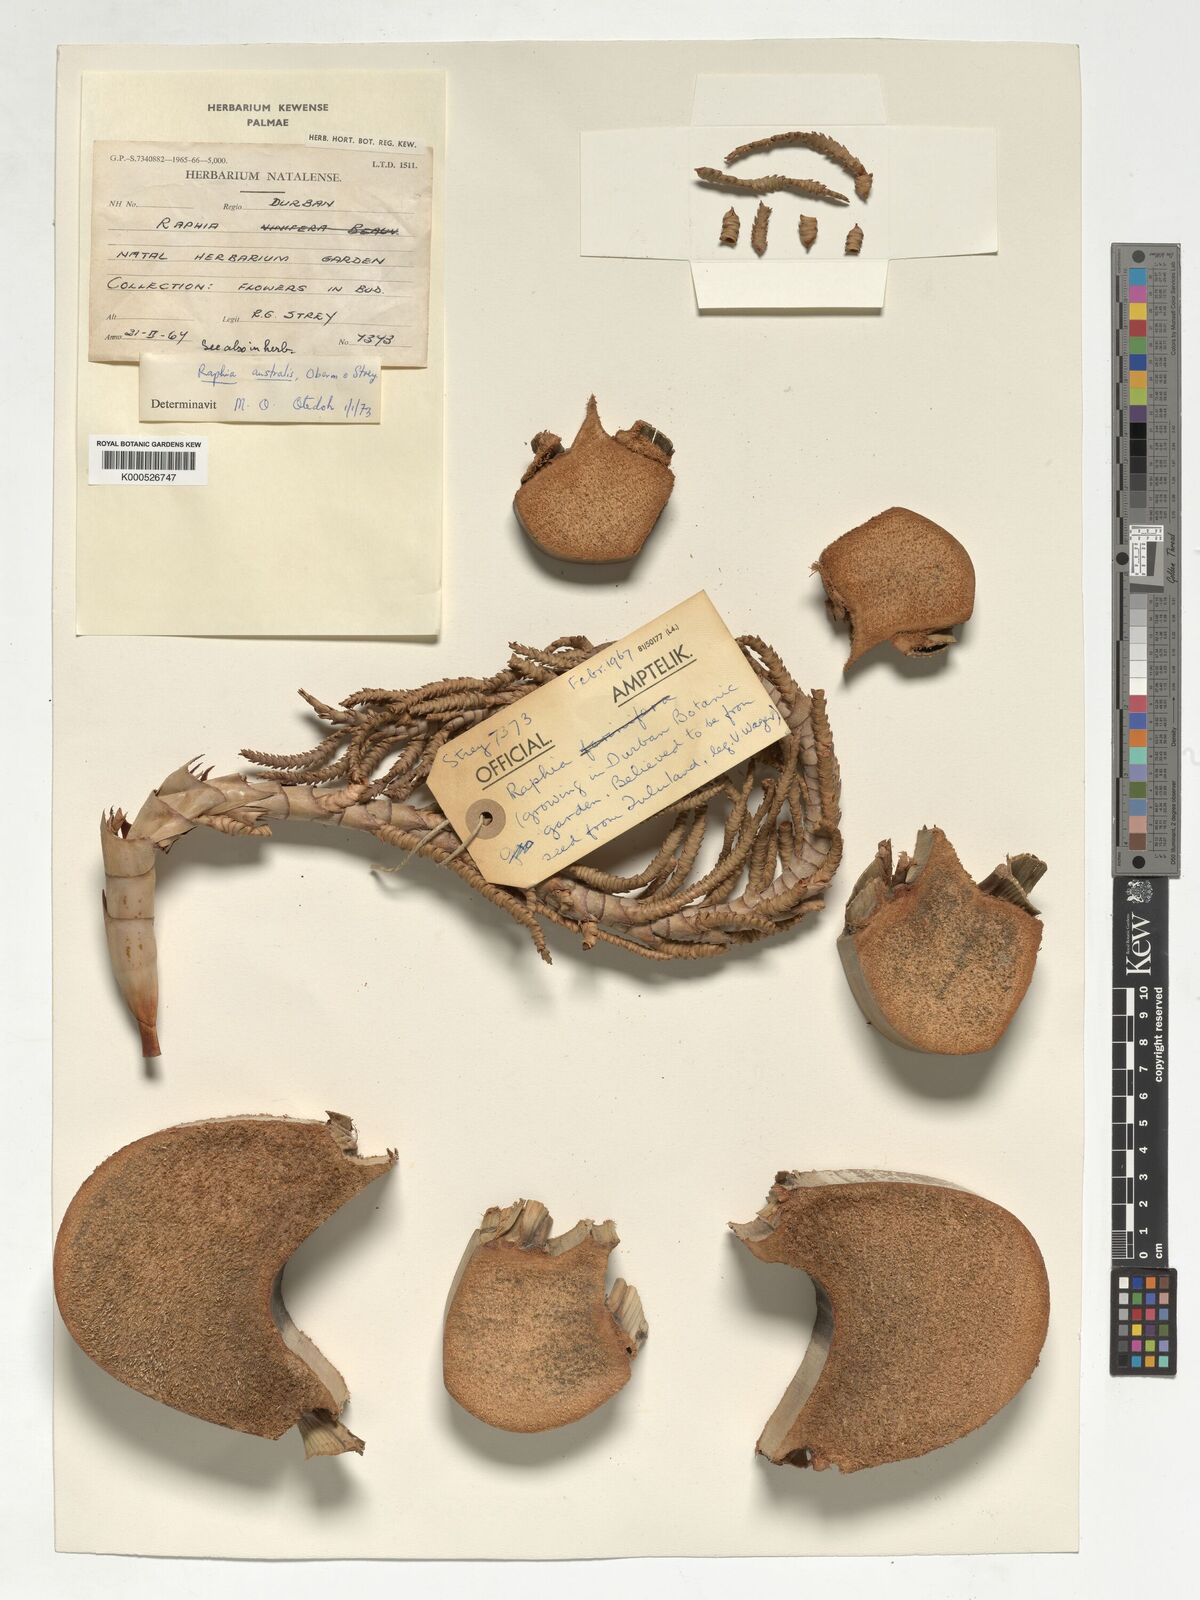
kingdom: Plantae
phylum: Tracheophyta
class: Liliopsida
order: Arecales
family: Arecaceae
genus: Raphia
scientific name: Raphia australis
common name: Giant palm
